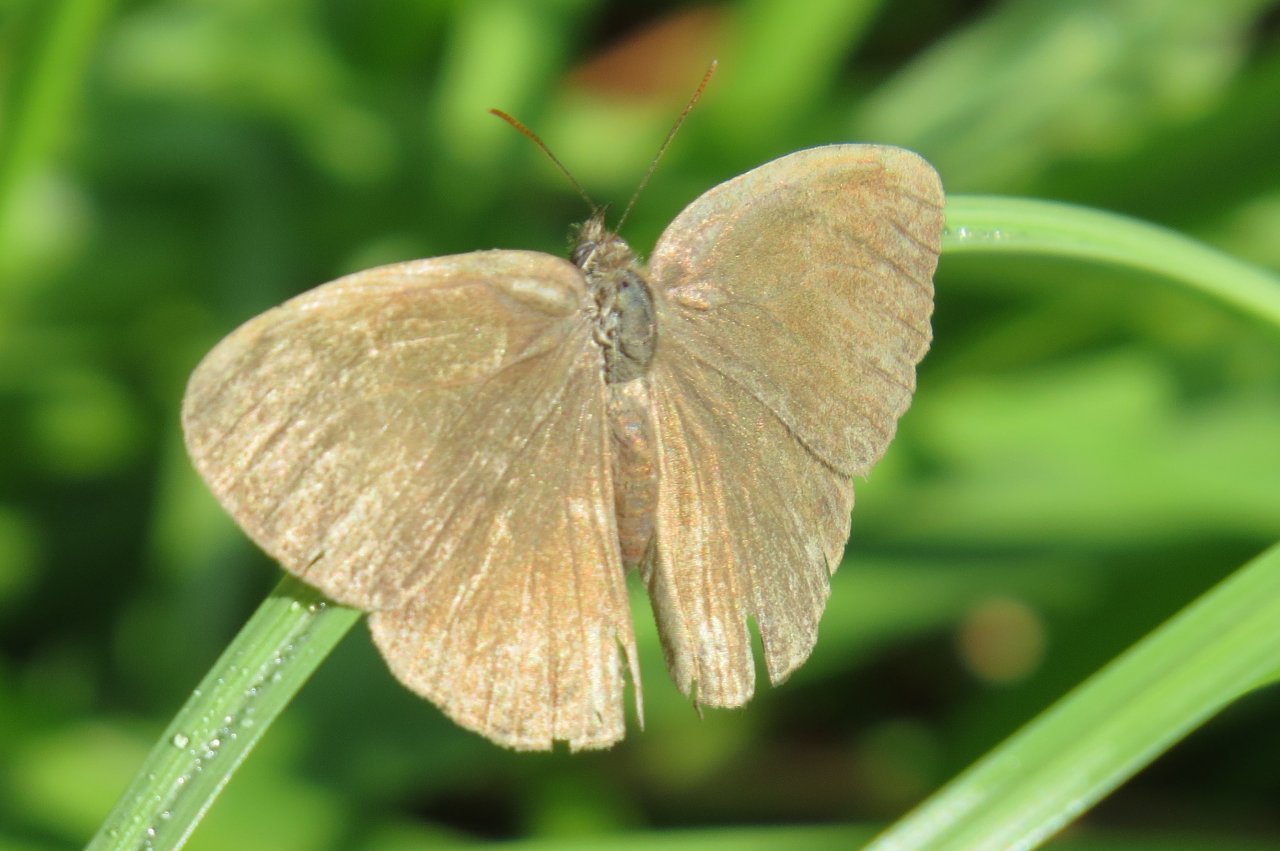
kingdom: Animalia
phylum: Arthropoda
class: Insecta
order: Lepidoptera
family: Nymphalidae
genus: Hermeuptychia
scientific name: Hermeuptychia intricata
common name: Intricate Satyr
